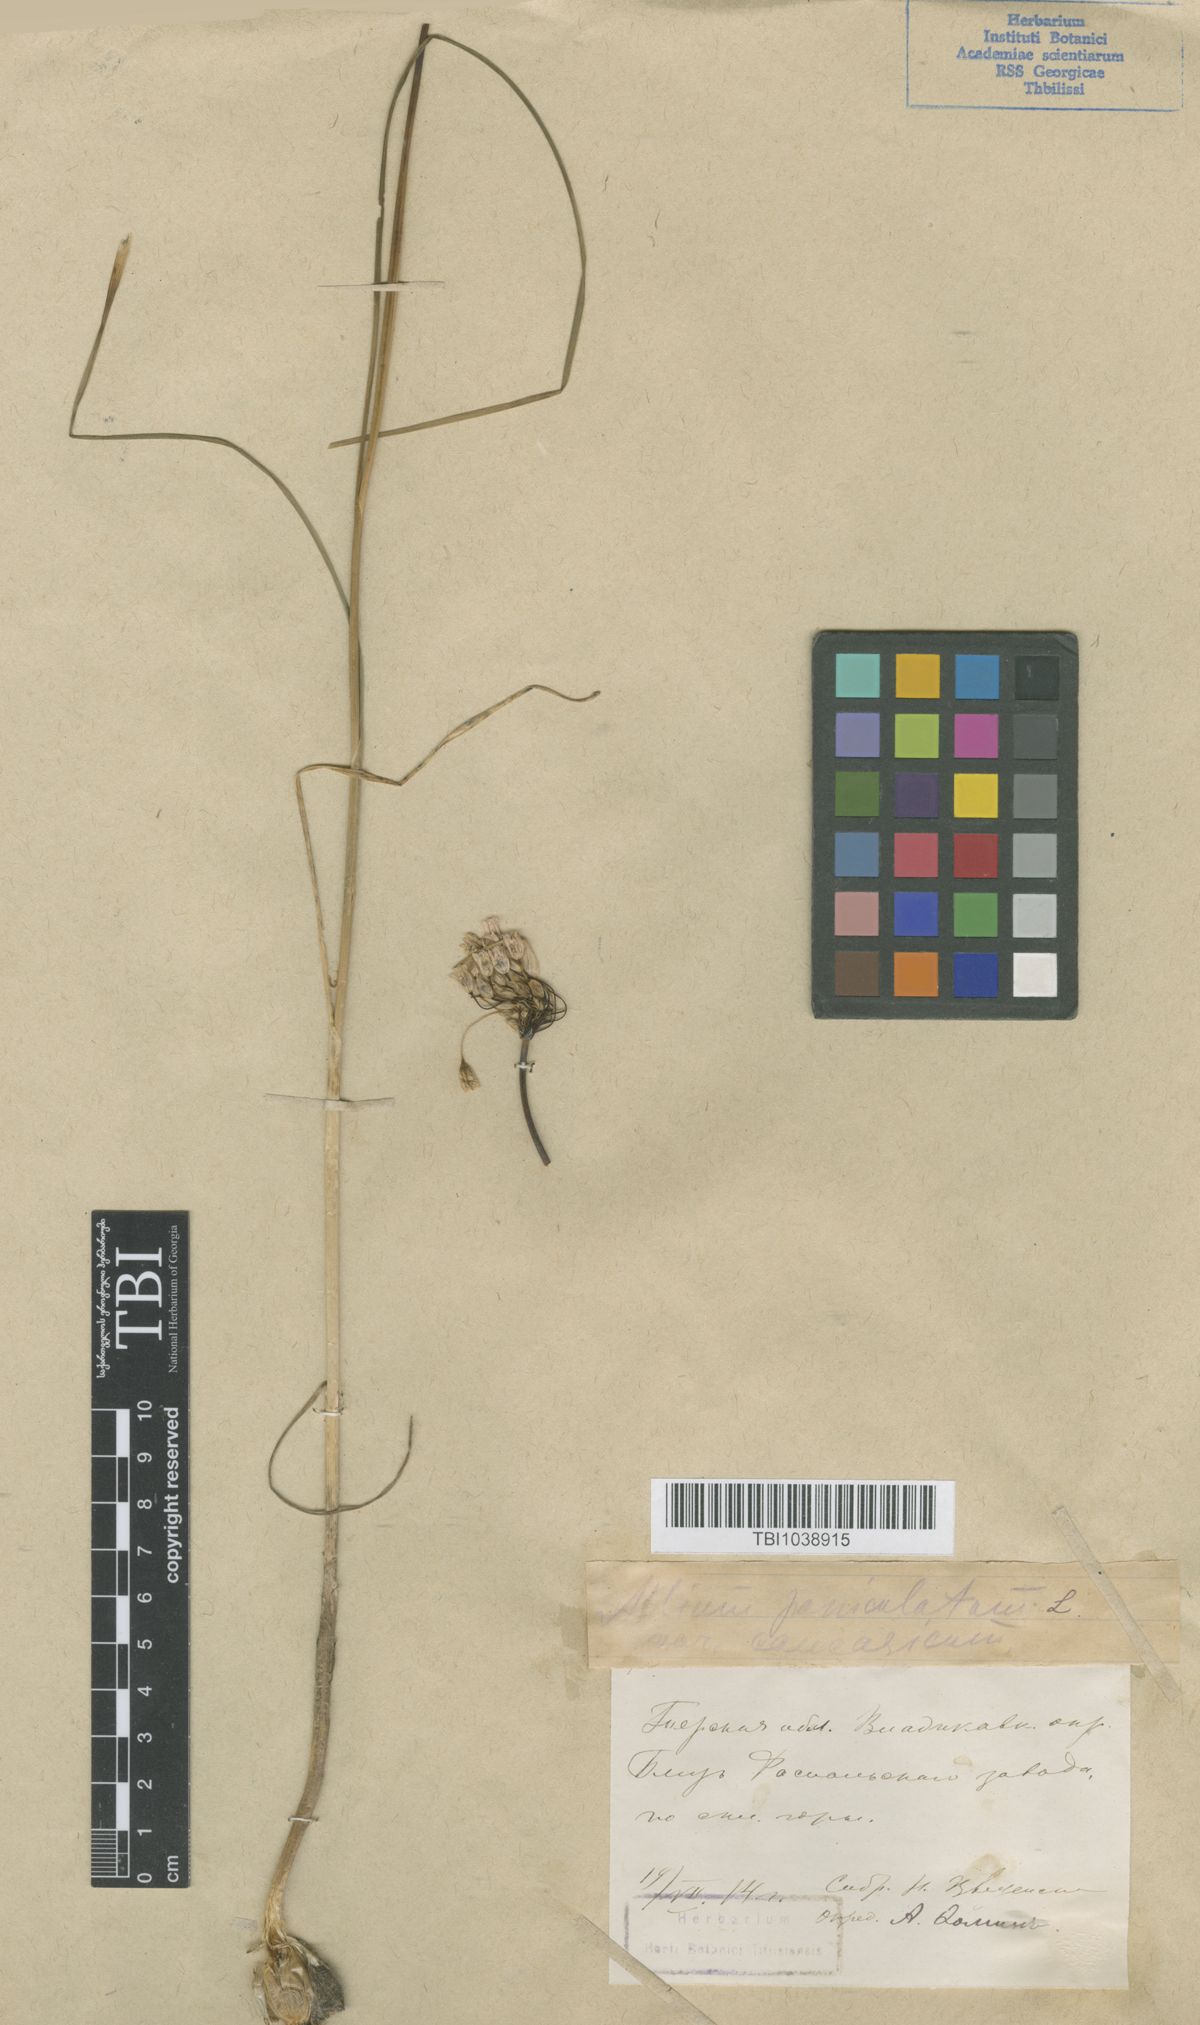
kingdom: Plantae
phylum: Tracheophyta
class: Liliopsida
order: Asparagales
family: Amaryllidaceae
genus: Allium
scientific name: Allium paniculatum
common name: Pale garlic
